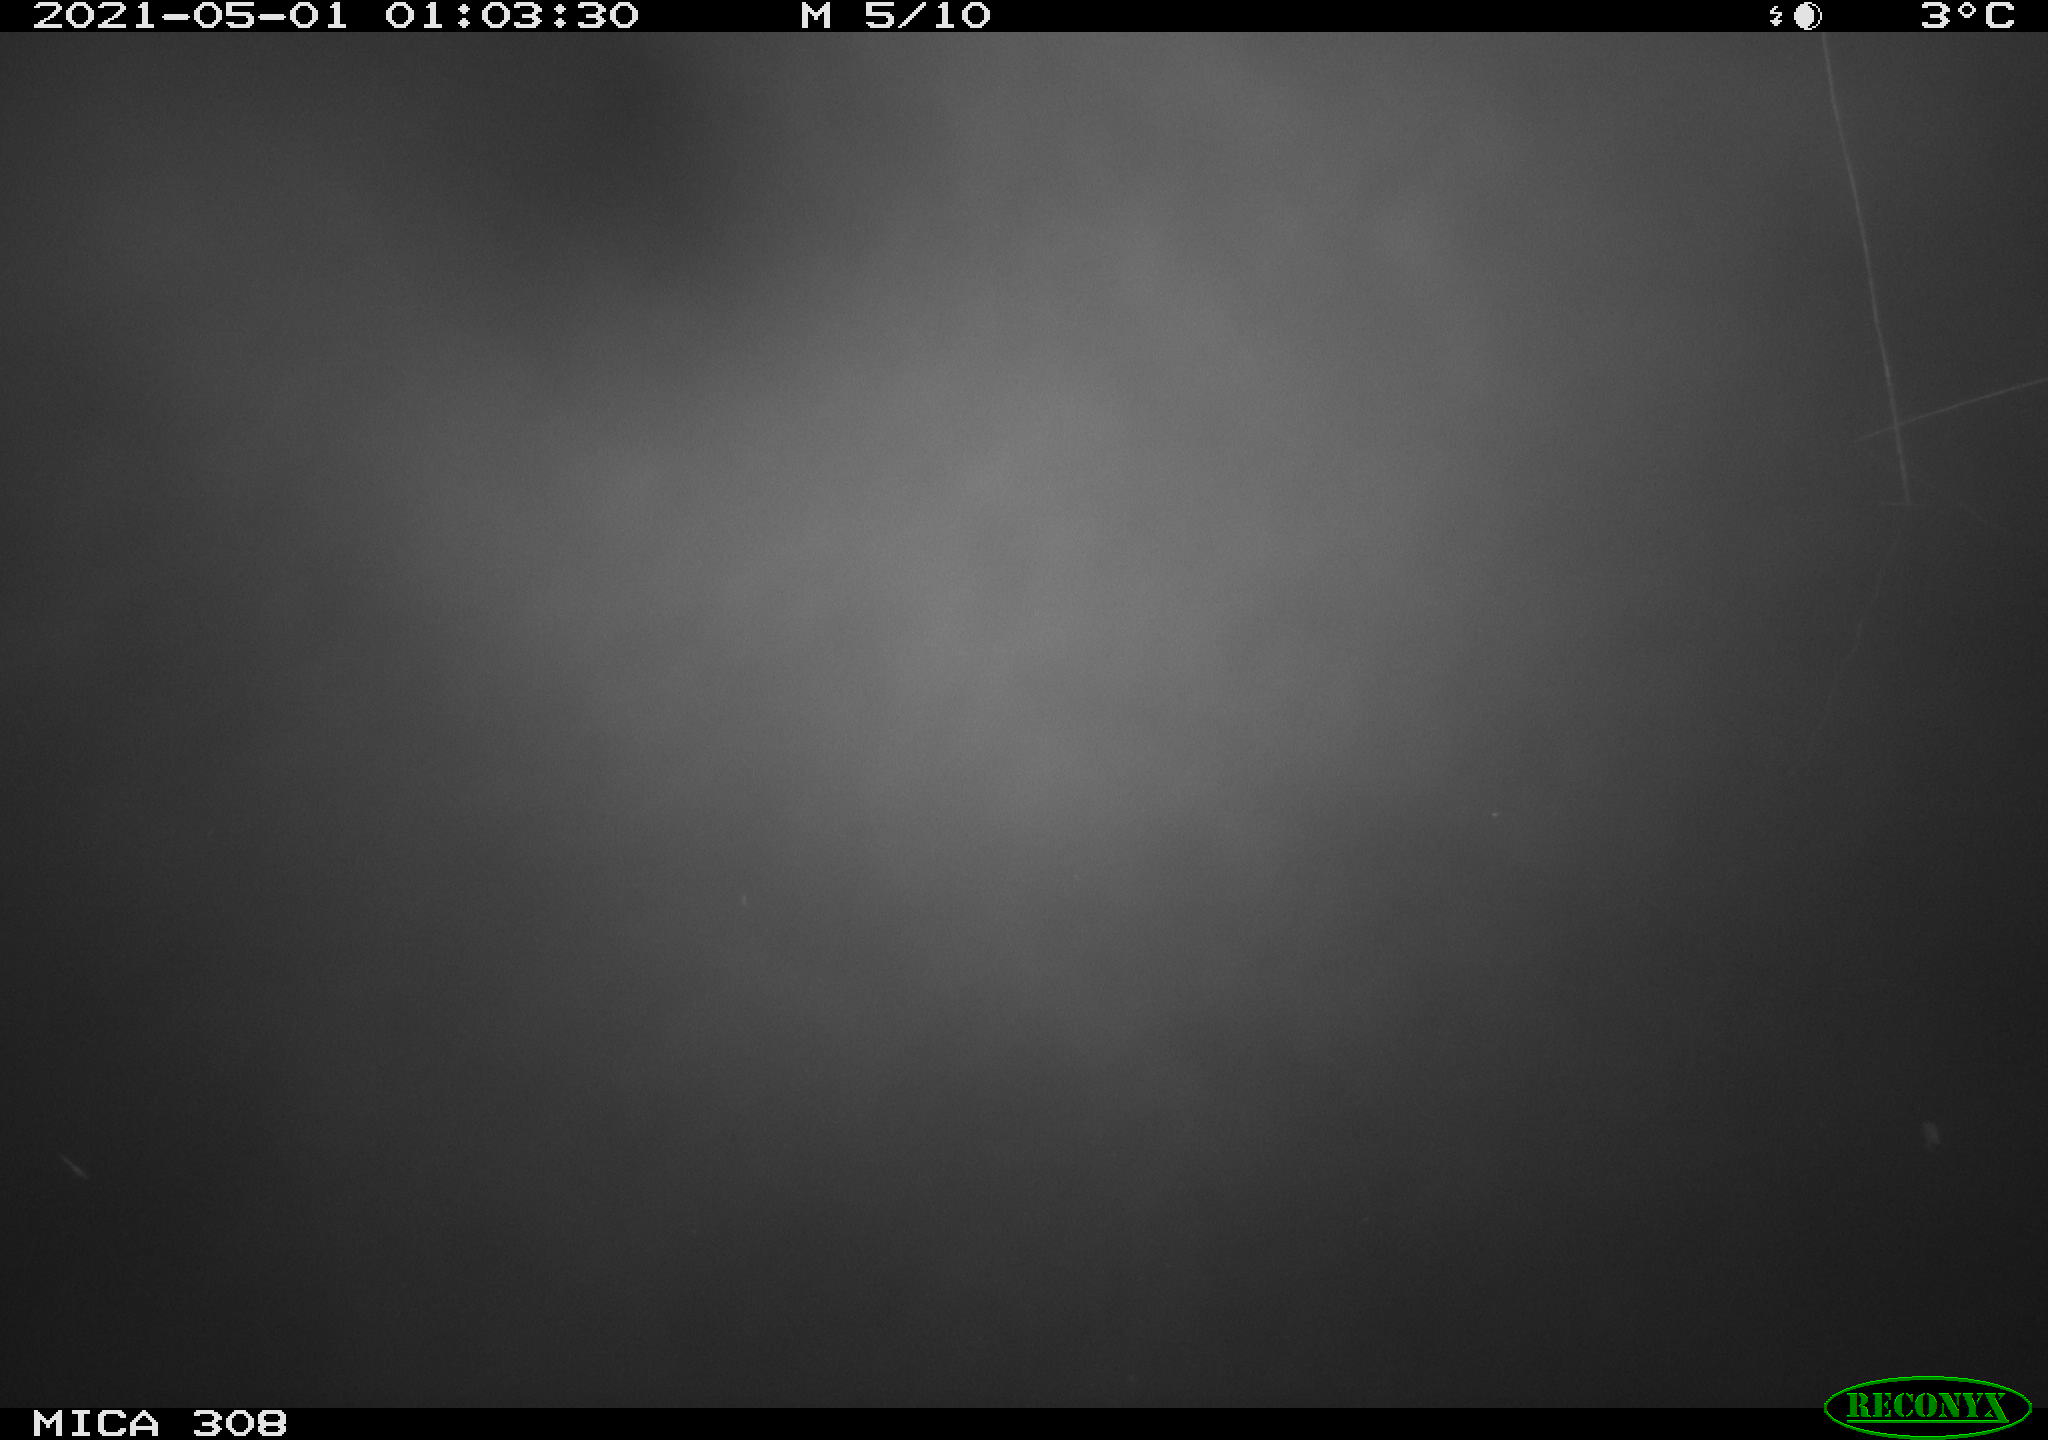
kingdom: Animalia
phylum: Chordata
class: Aves
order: Anseriformes
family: Anatidae
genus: Anas
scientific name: Anas platyrhynchos
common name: Mallard
